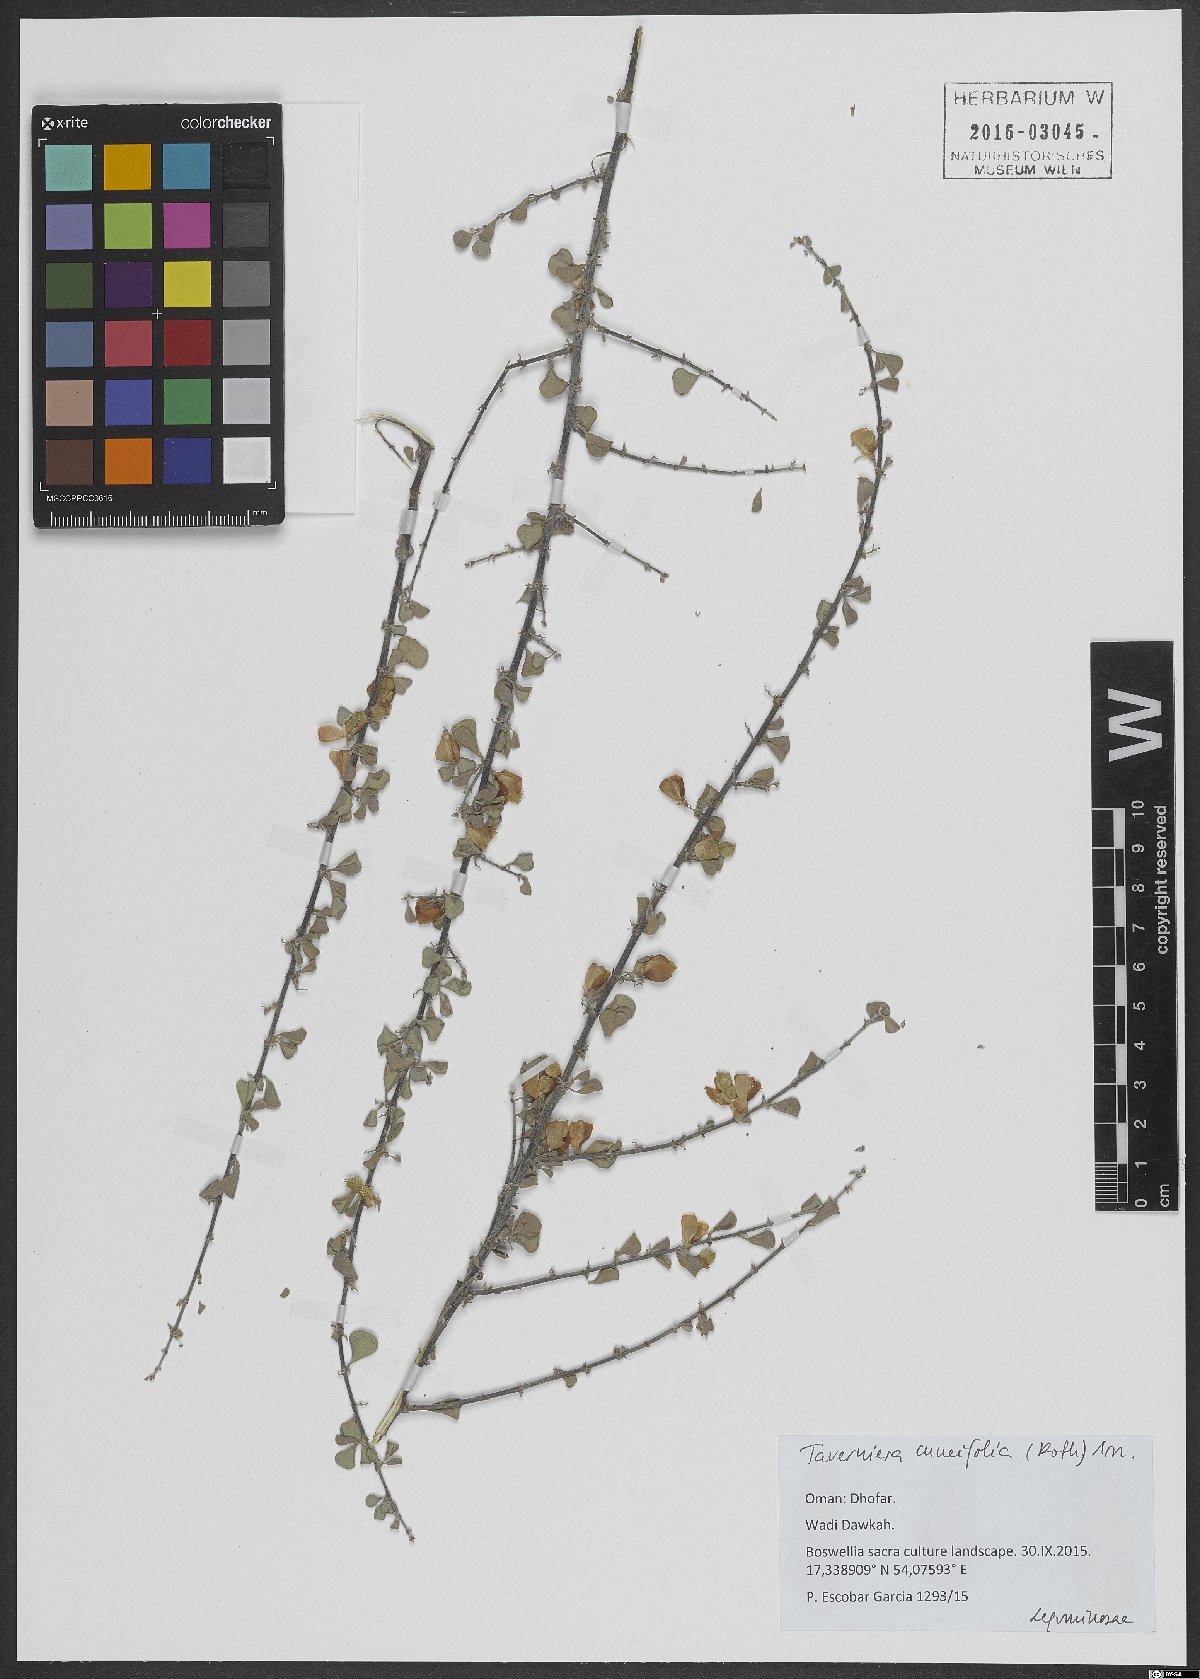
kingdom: Plantae
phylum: Tracheophyta
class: Magnoliopsida
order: Fabales
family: Fabaceae
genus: Taverniera
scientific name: Taverniera cuneifolia
